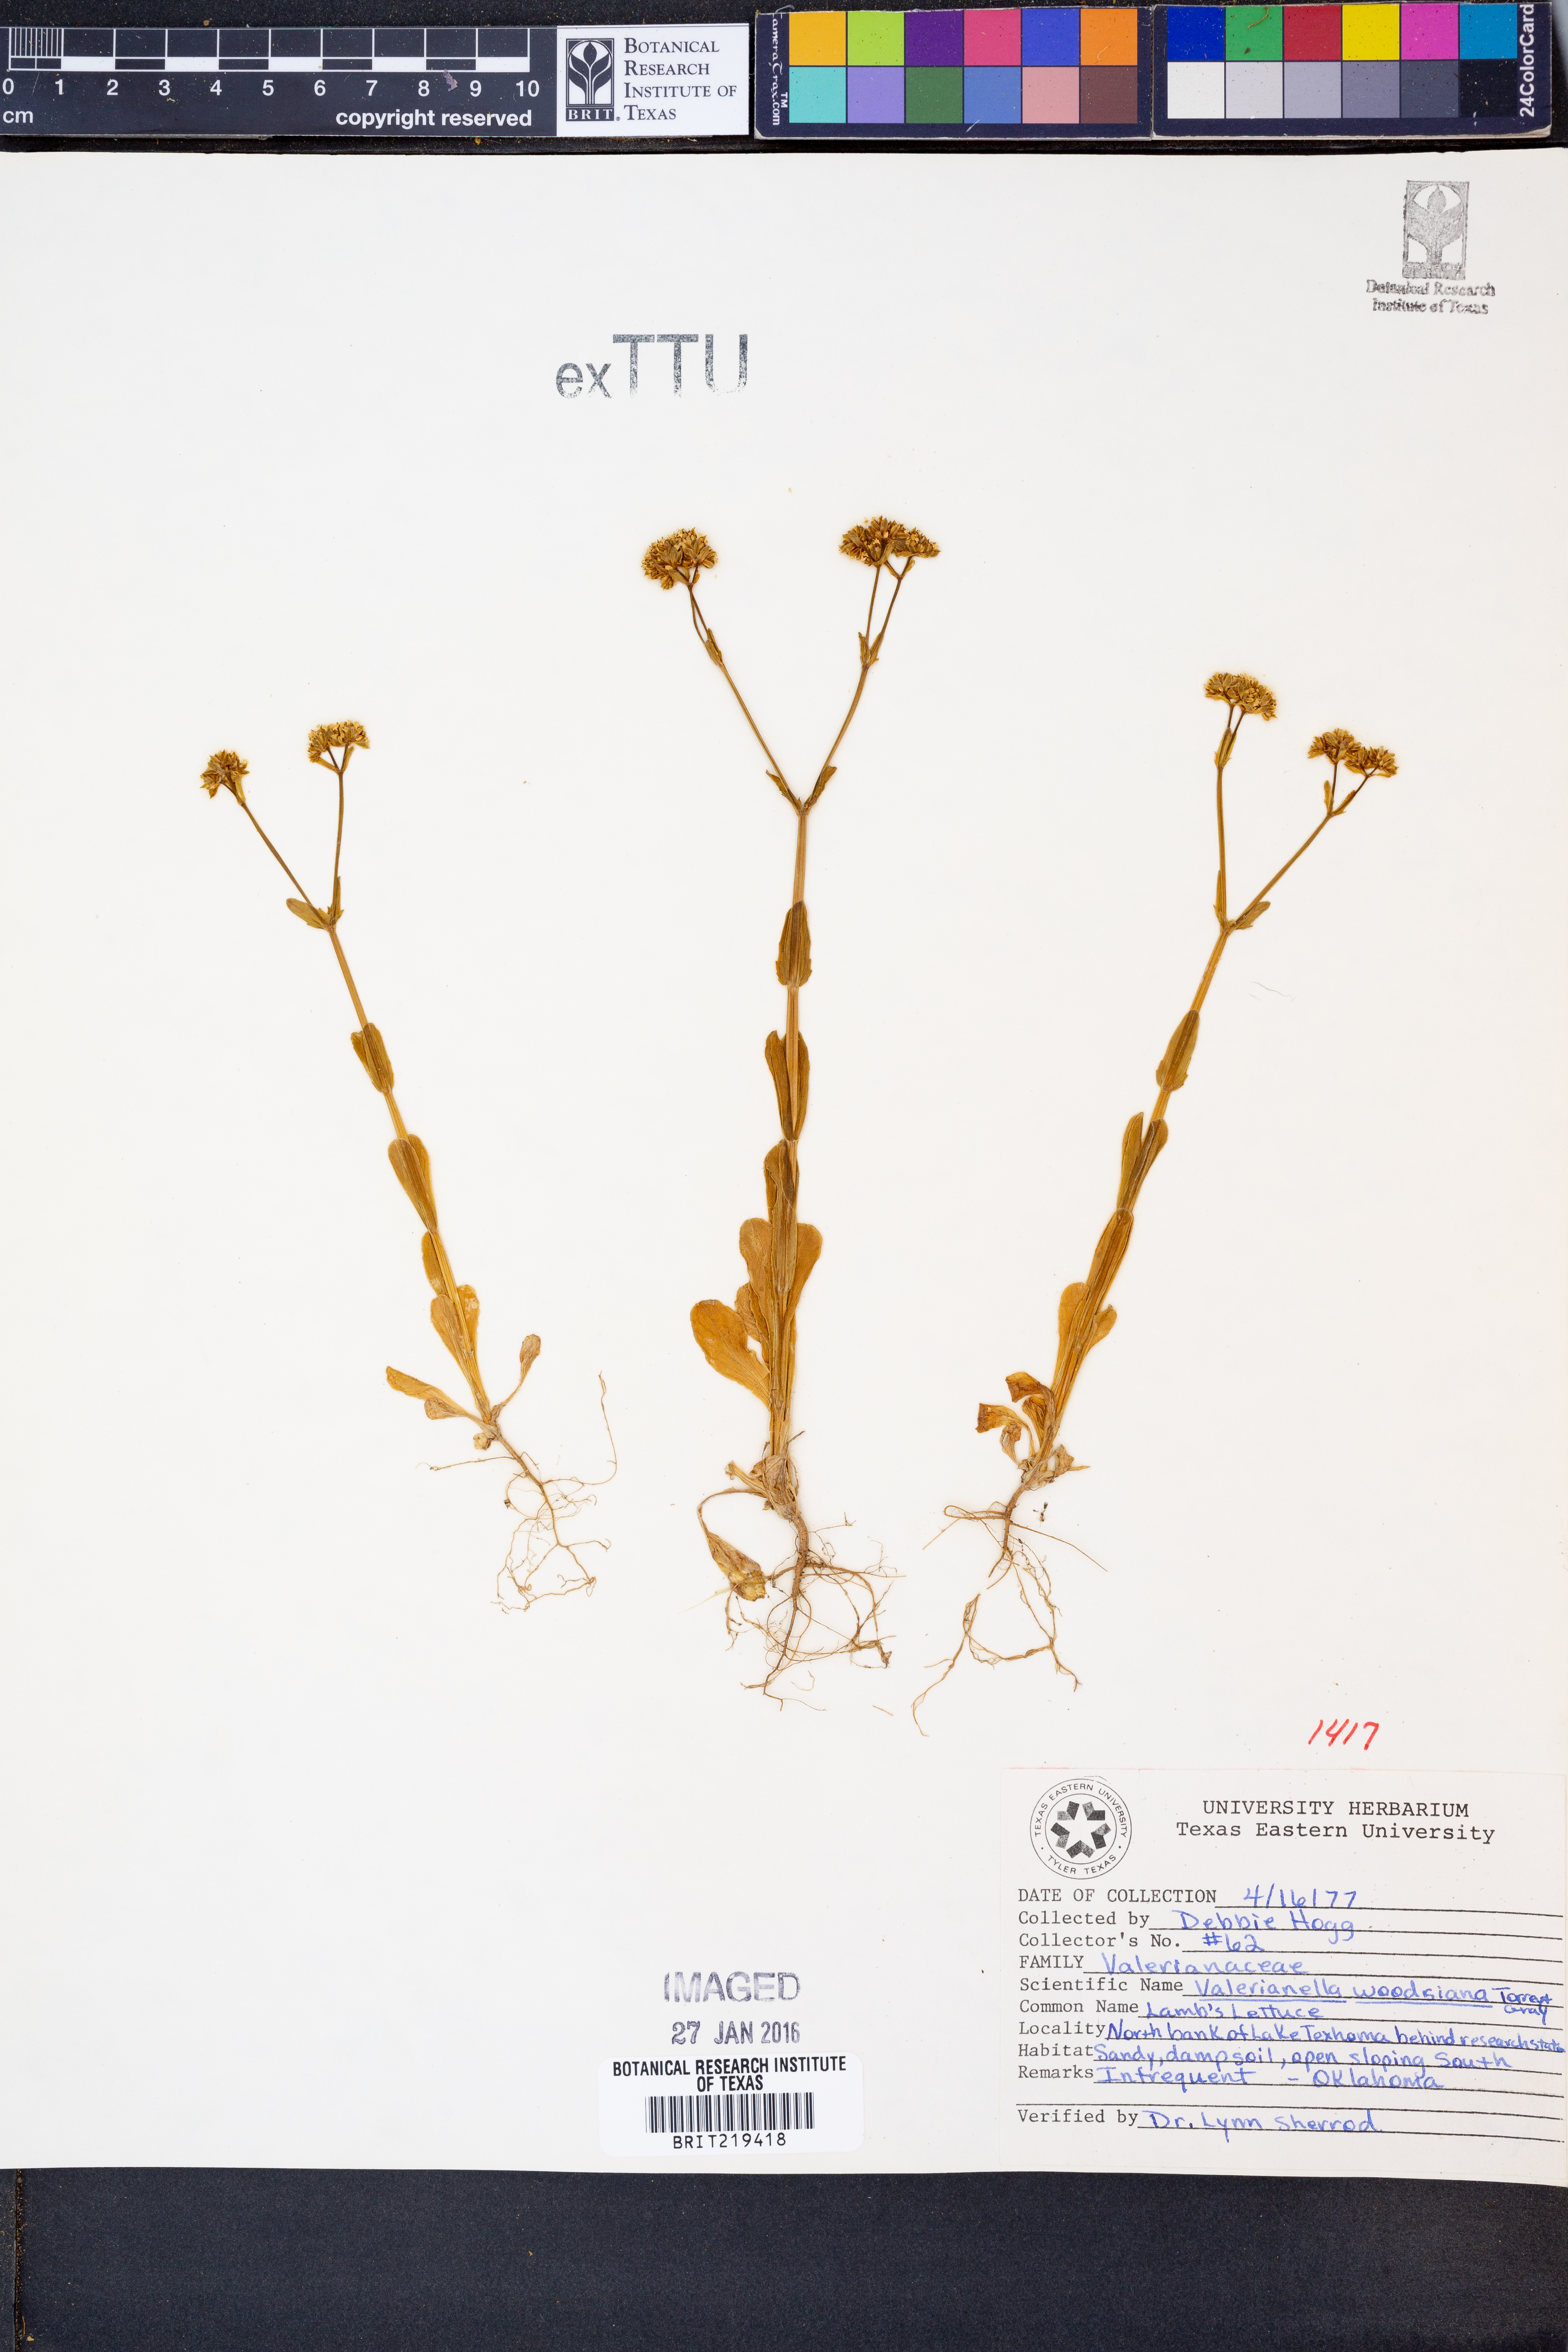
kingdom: Plantae
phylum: Tracheophyta
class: Magnoliopsida
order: Dipsacales
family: Caprifoliaceae
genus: Valerianella
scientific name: Valerianella radiata
